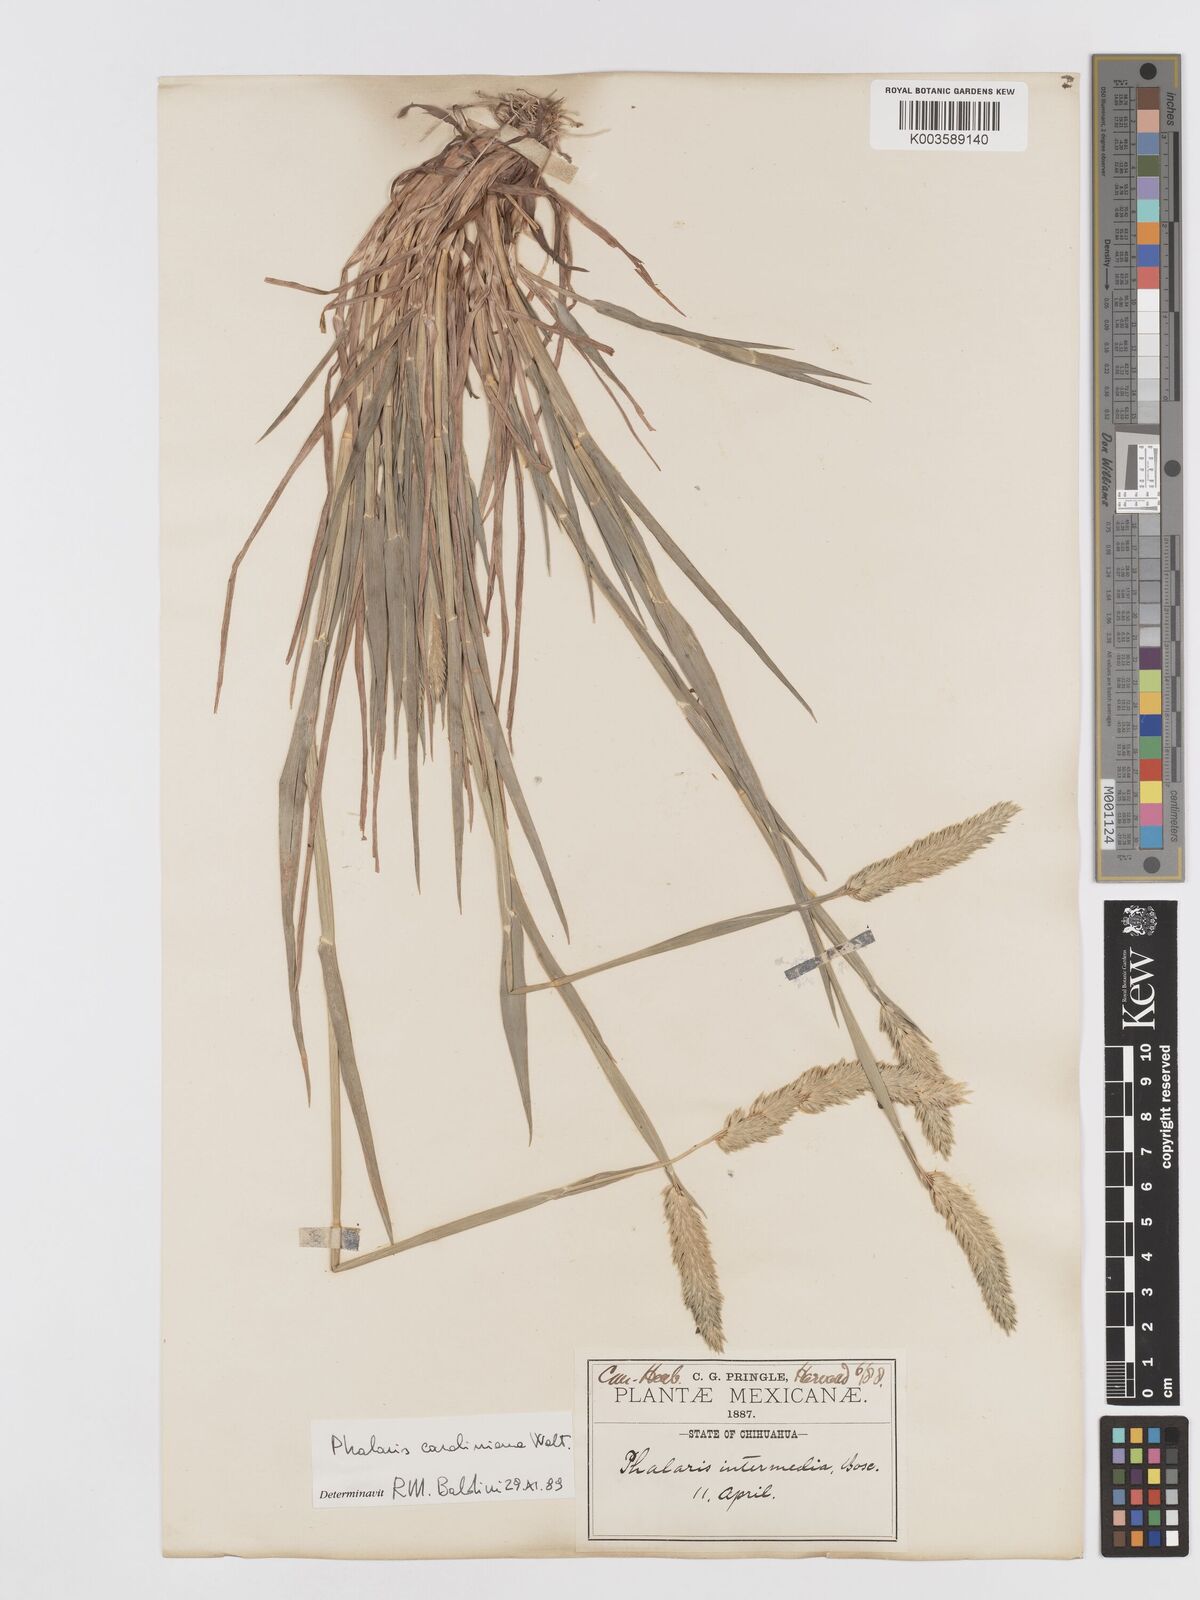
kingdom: Plantae
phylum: Tracheophyta
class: Liliopsida
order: Poales
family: Poaceae
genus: Phalaris
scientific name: Phalaris caroliniana
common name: May grass
